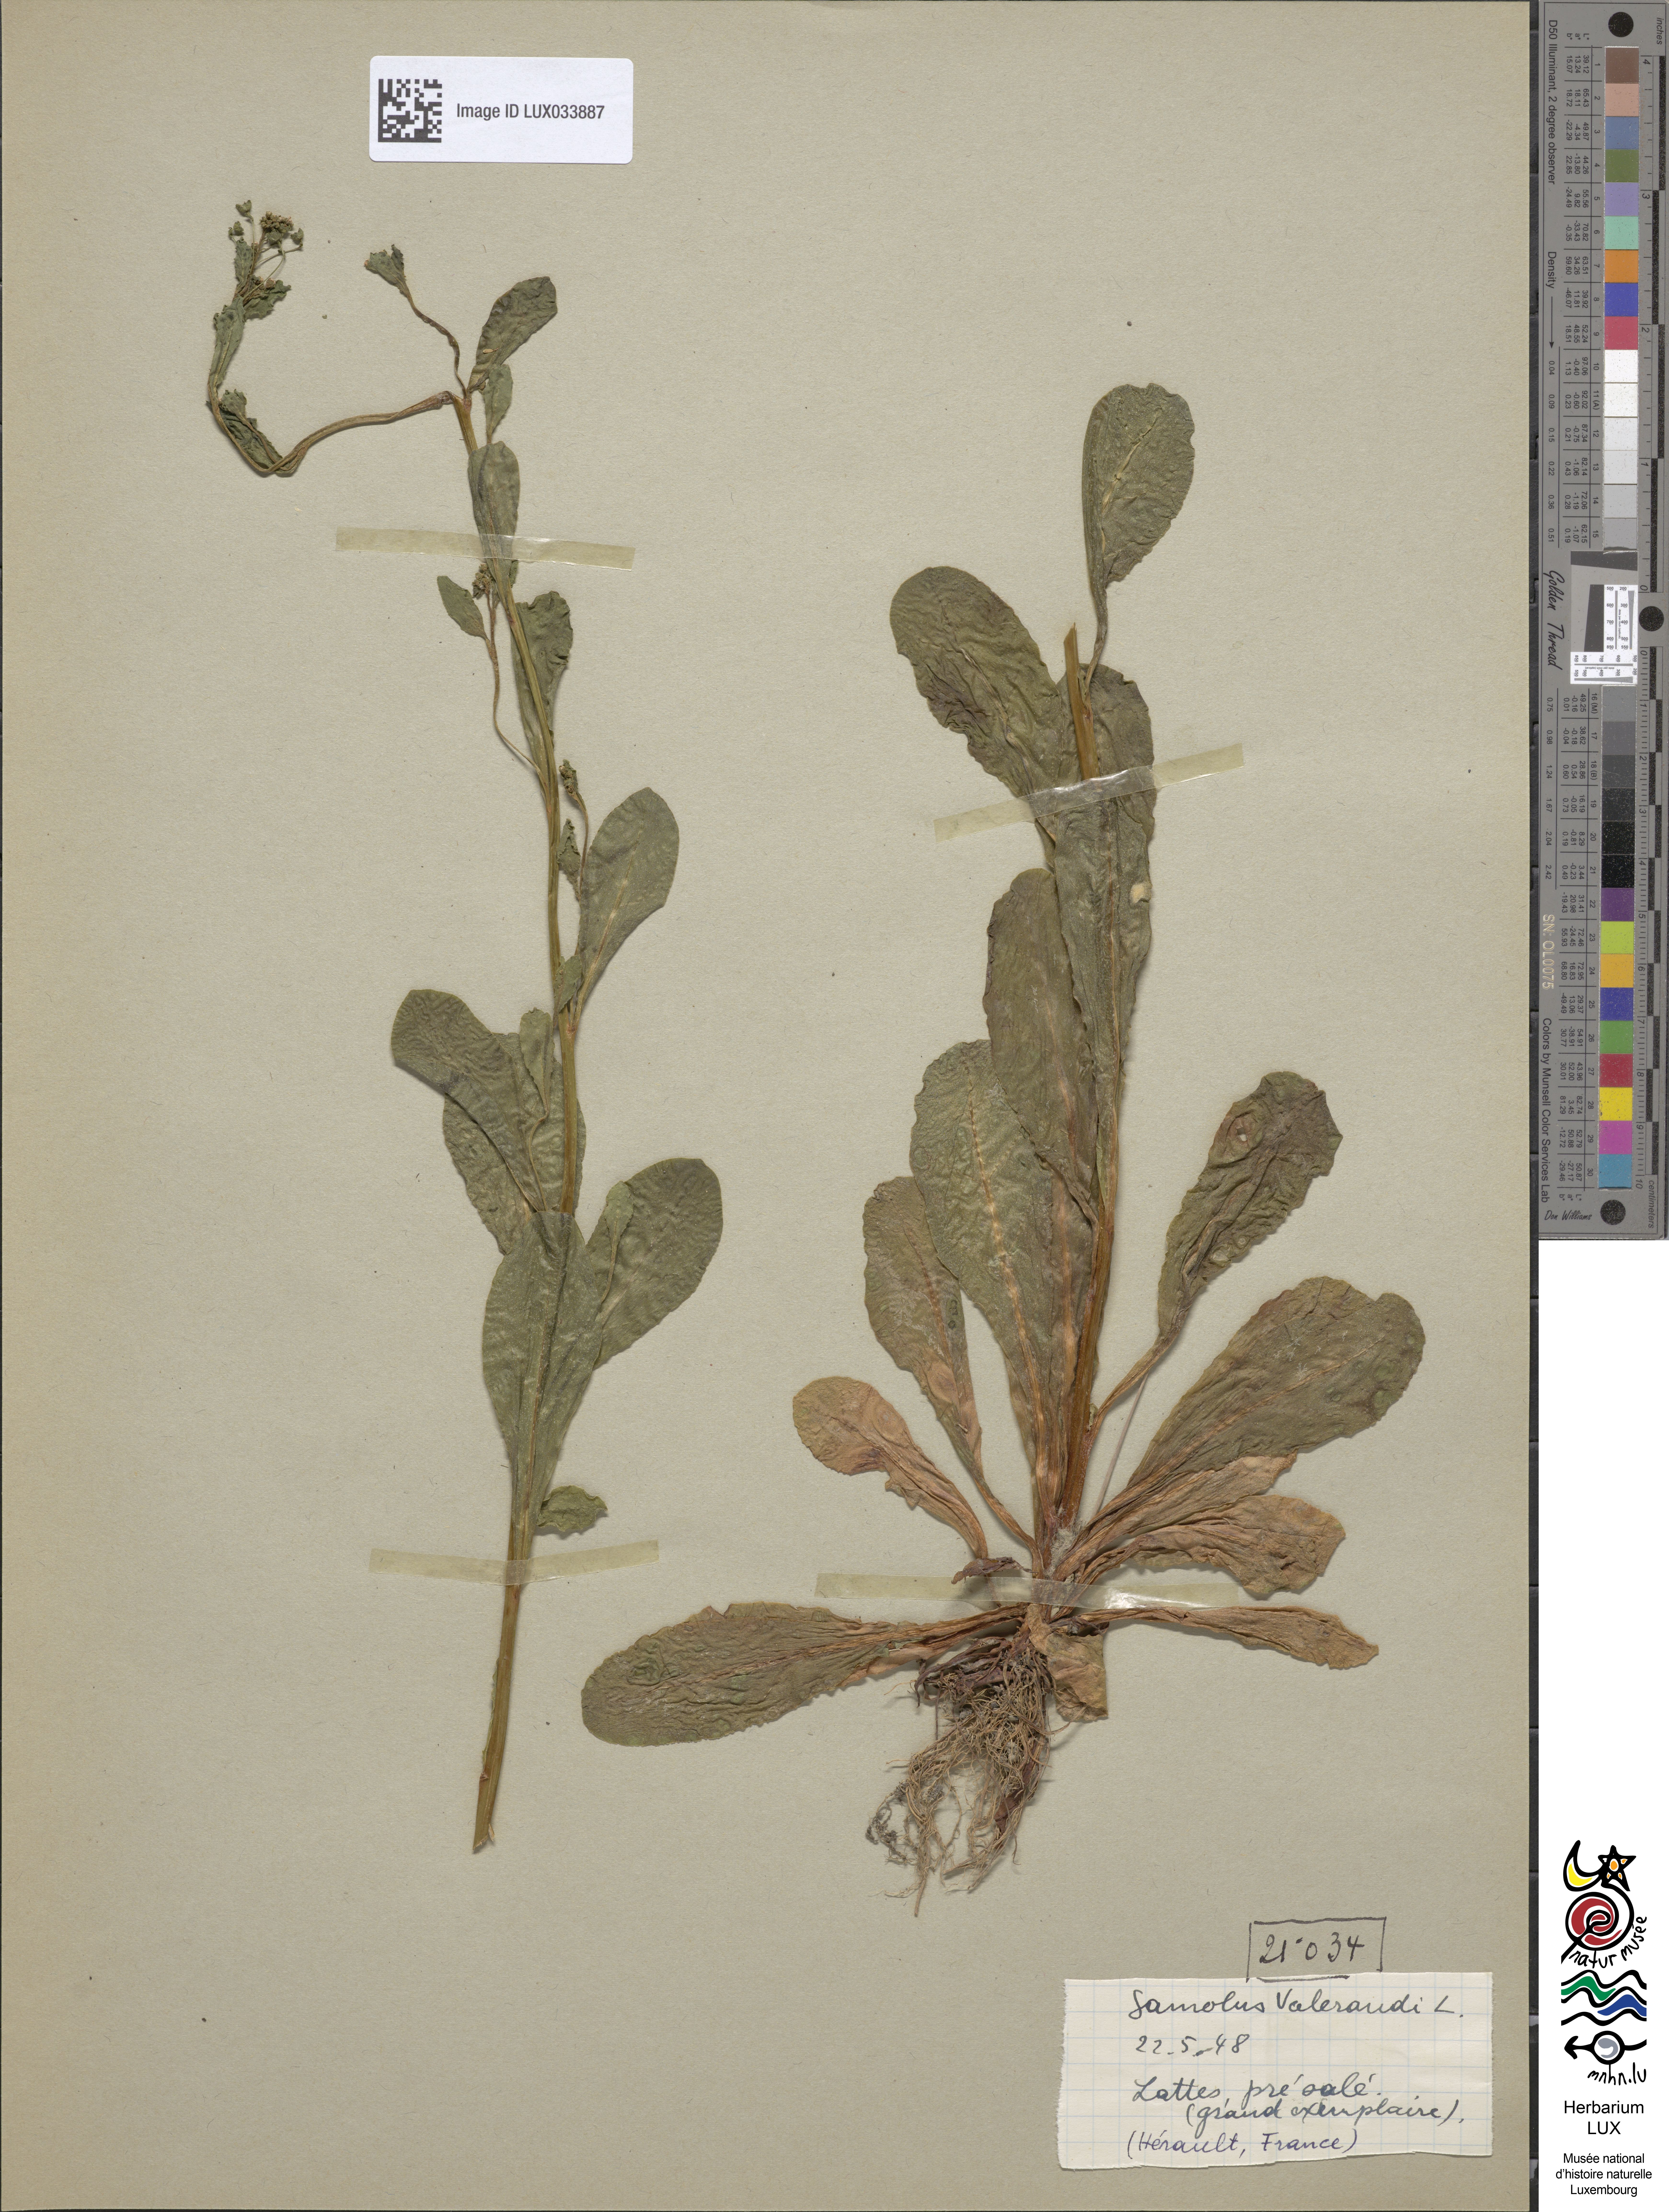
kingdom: Plantae
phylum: Tracheophyta
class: Magnoliopsida
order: Ericales
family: Primulaceae
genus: Samolus
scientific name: Samolus valerandi
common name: Brookweed
